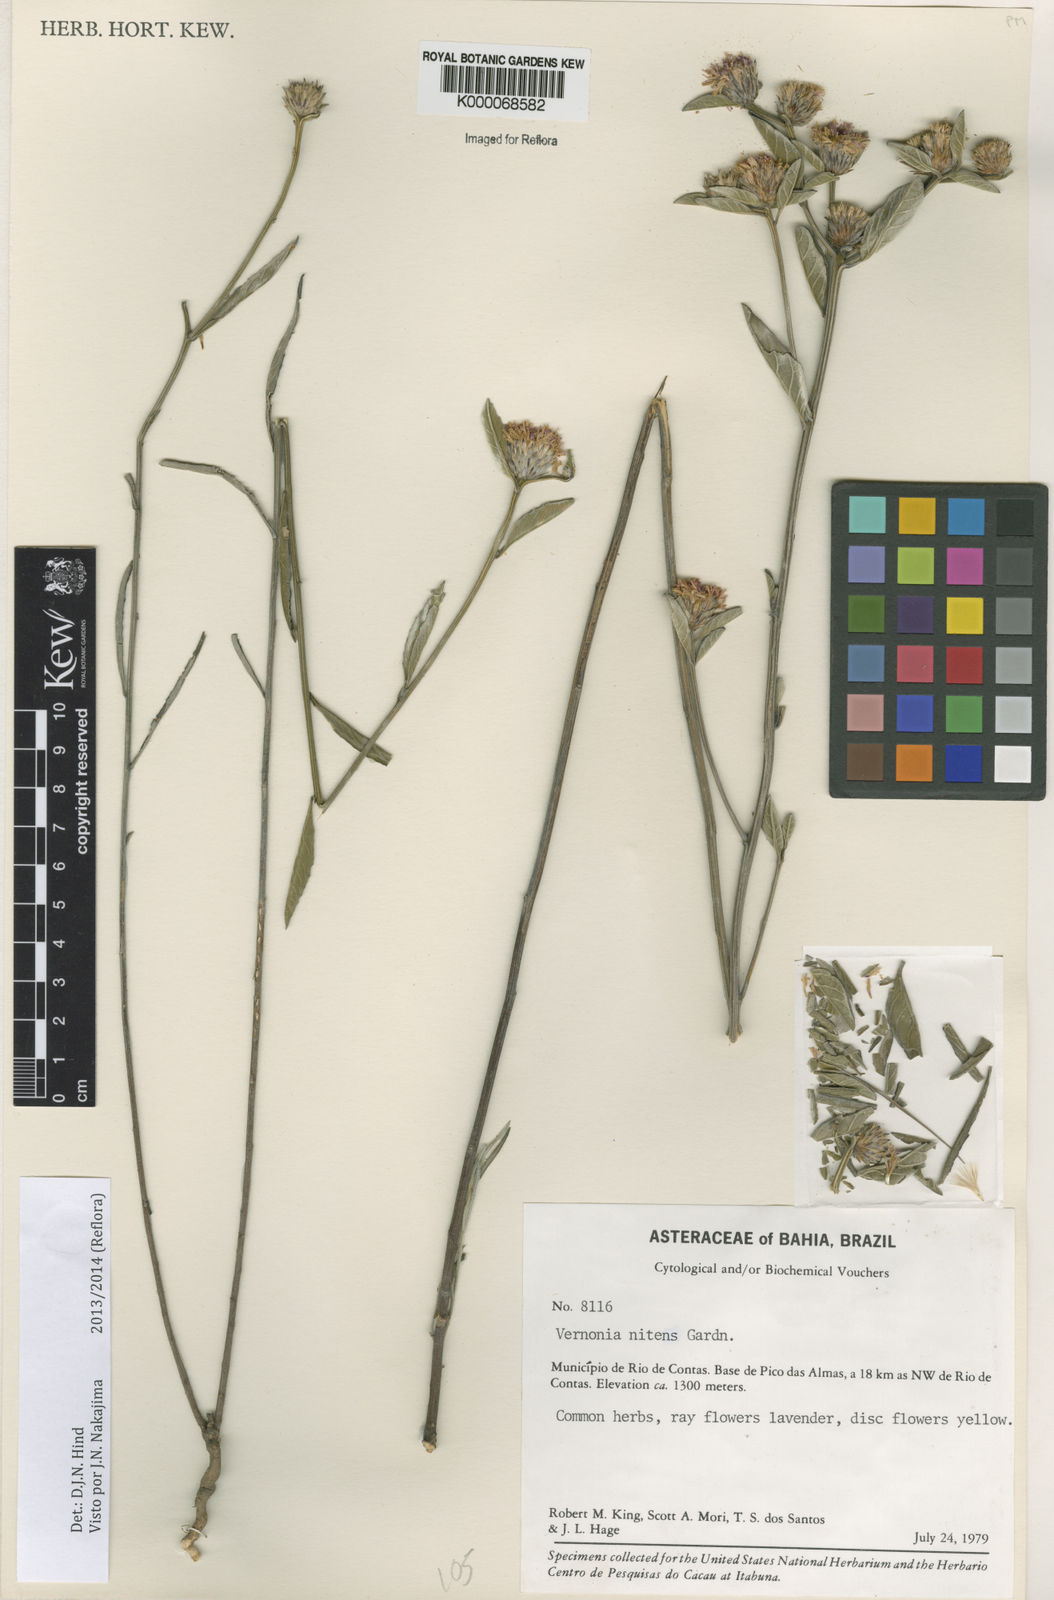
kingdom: Plantae
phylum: Tracheophyta
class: Magnoliopsida
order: Asterales
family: Asteraceae
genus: Lepidaploa
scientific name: Lepidaploa nitens
